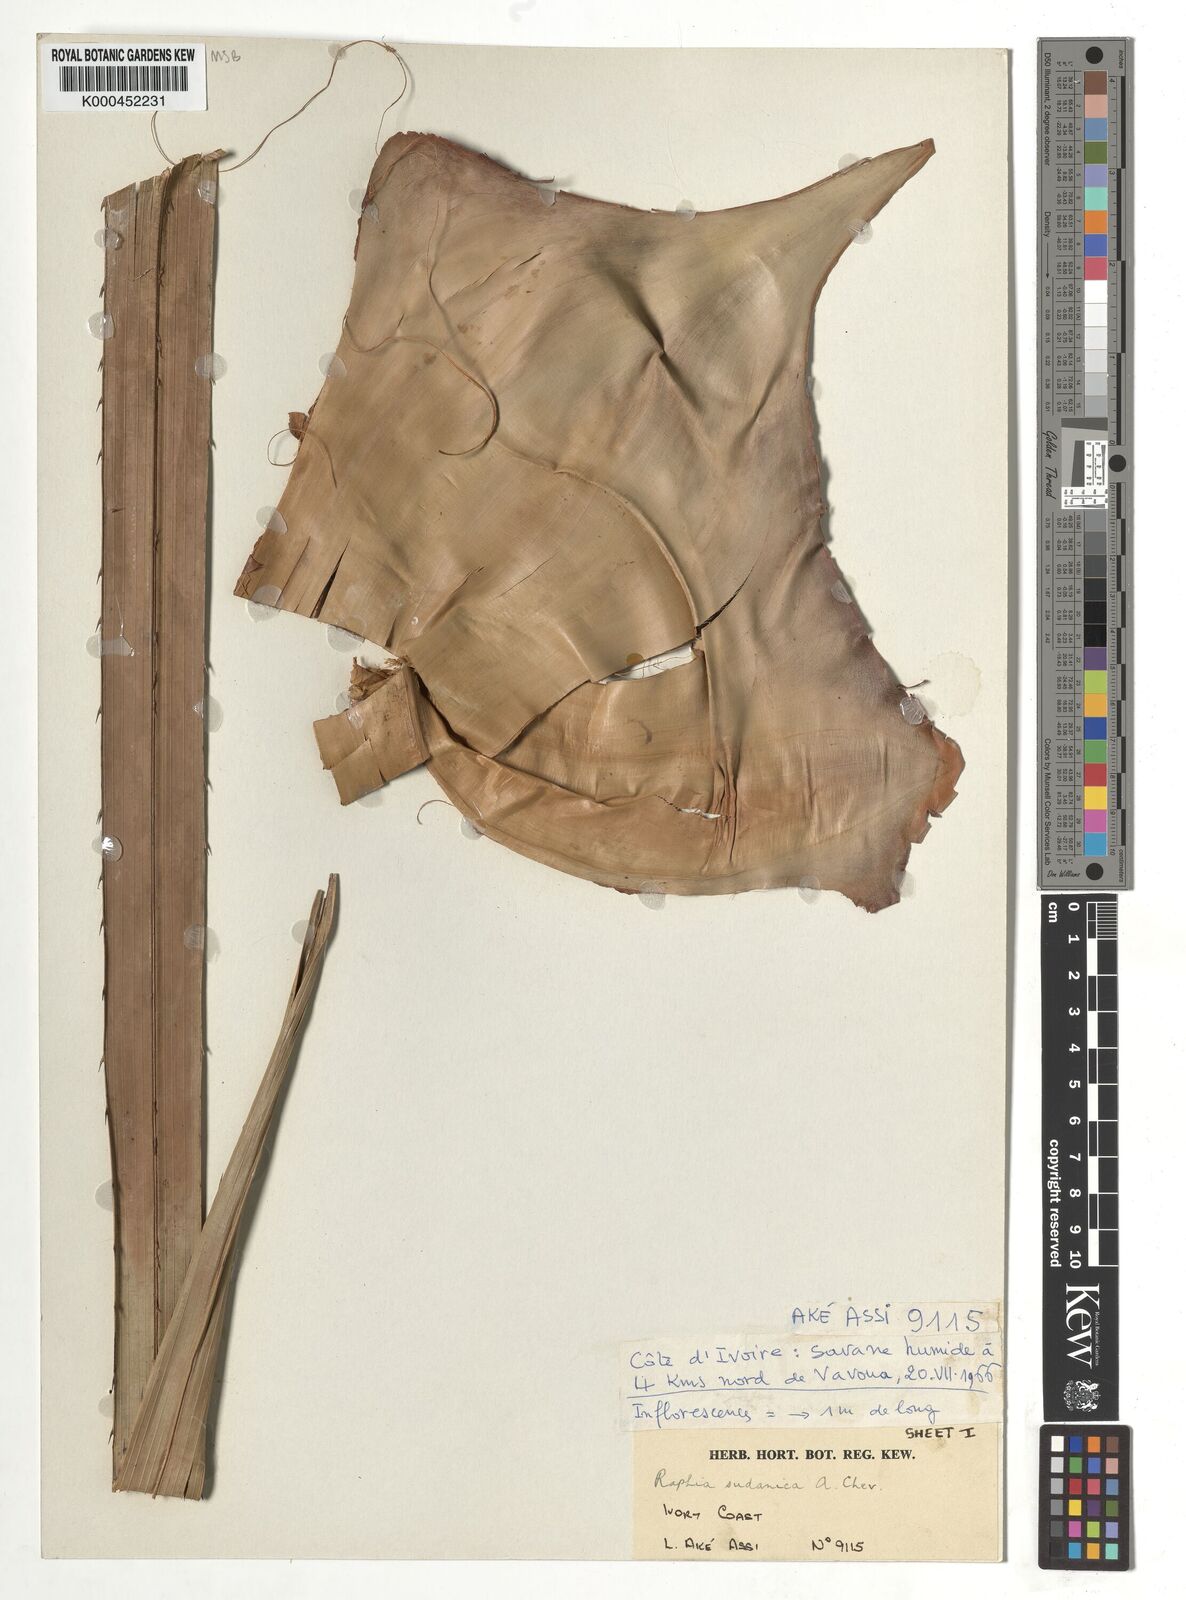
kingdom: Plantae
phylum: Tracheophyta
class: Liliopsida
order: Arecales
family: Arecaceae
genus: Raphia
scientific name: Raphia sudanica
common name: Northern raphia
